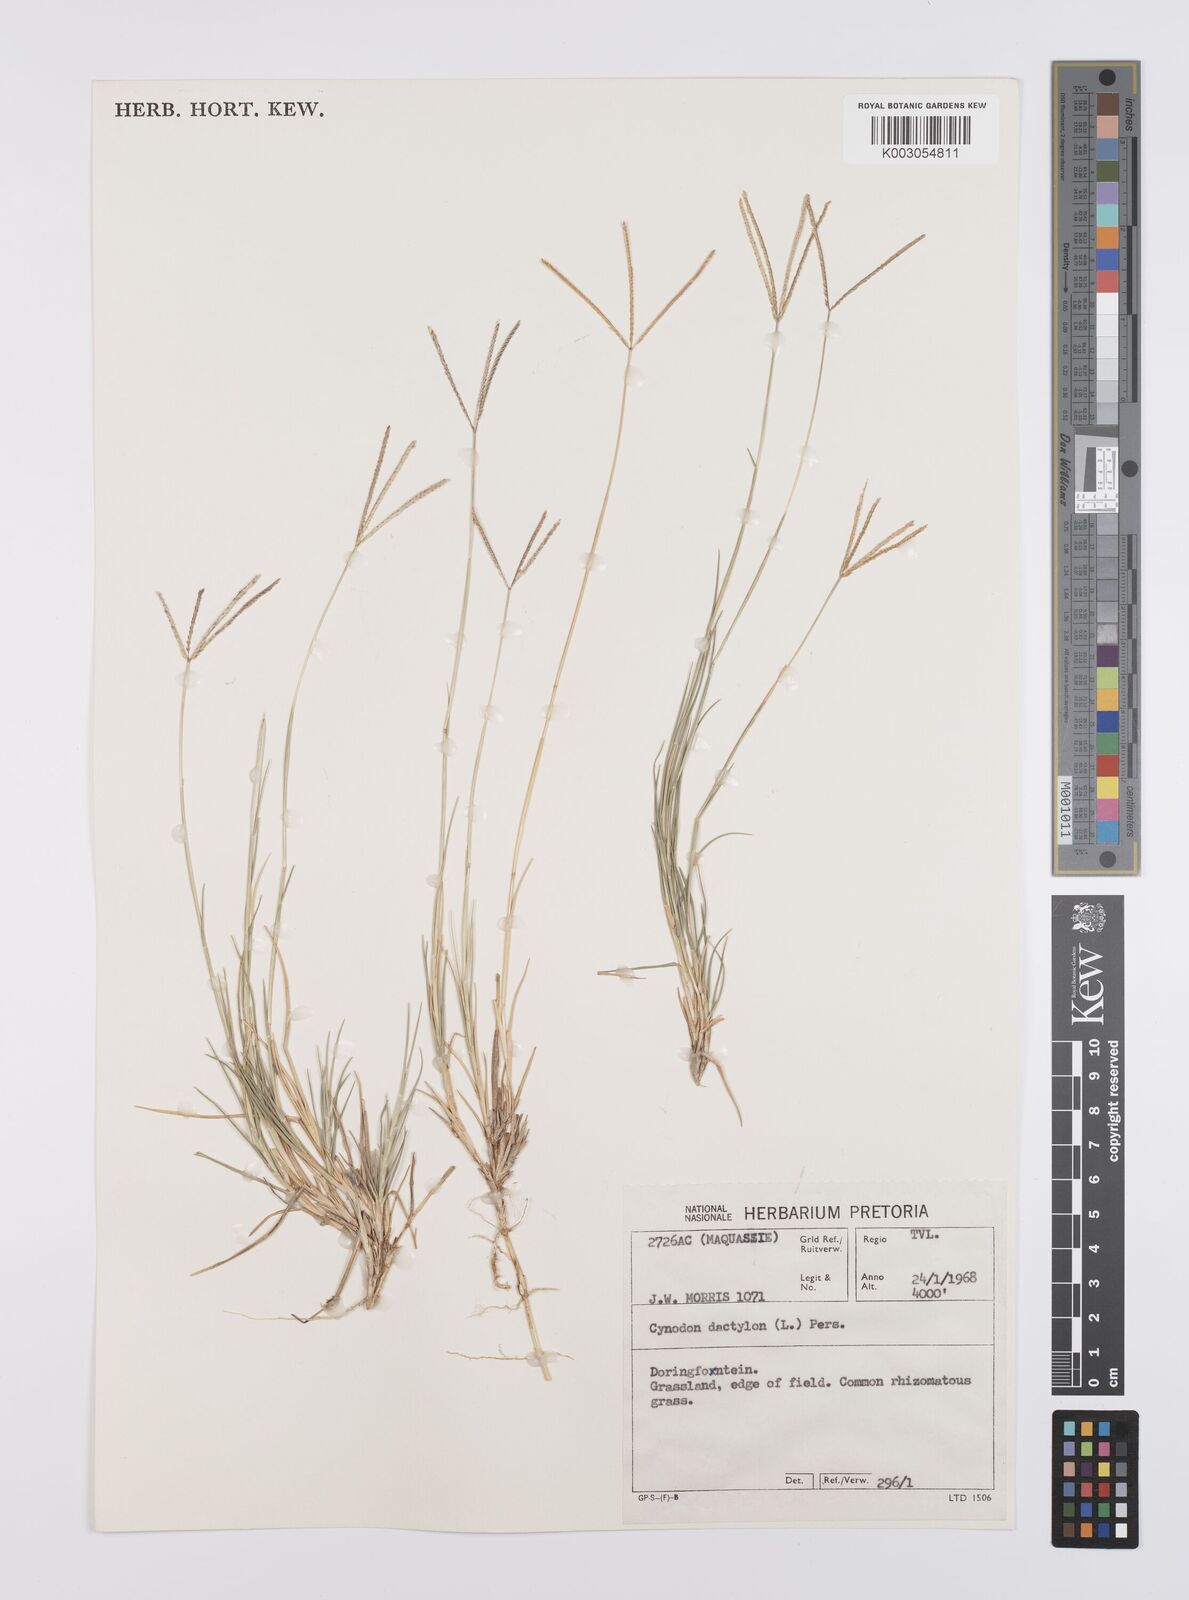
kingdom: Plantae
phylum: Tracheophyta
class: Liliopsida
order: Poales
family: Poaceae
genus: Cynodon
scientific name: Cynodon dactylon
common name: Bermuda grass
